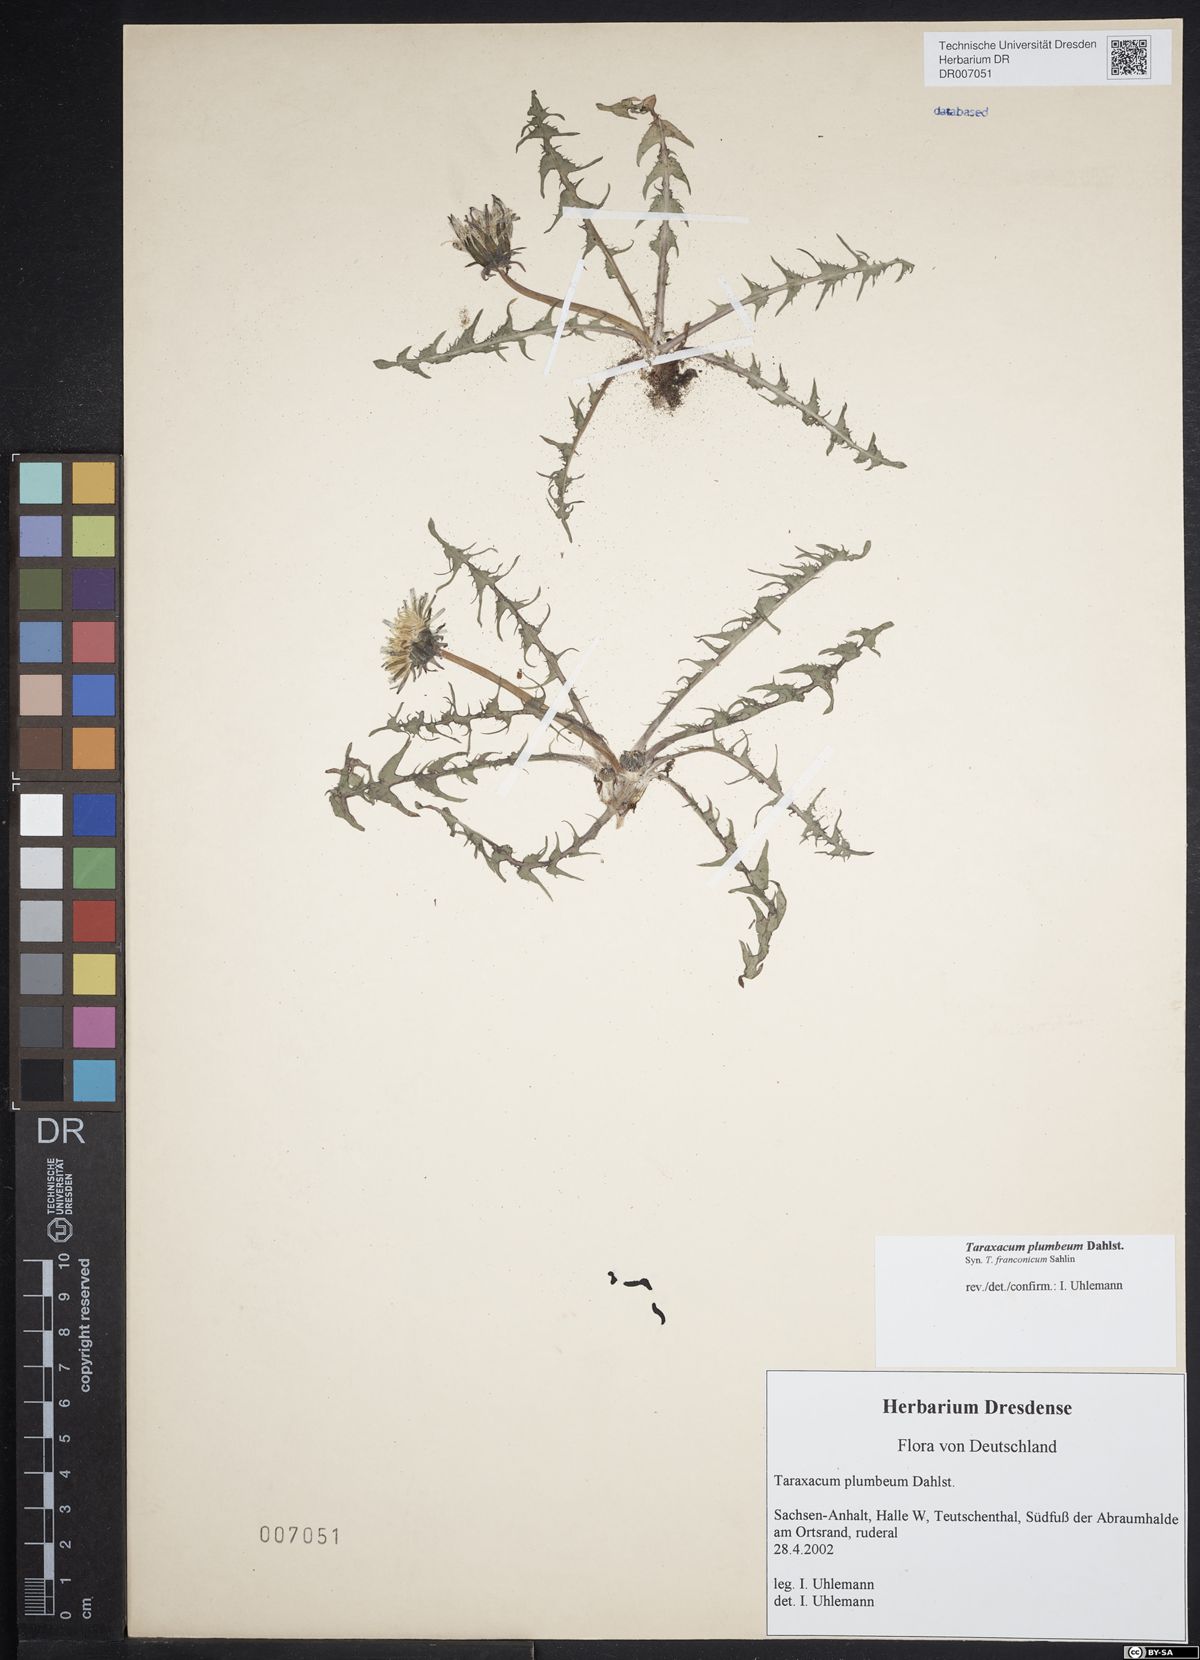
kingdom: Plantae
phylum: Tracheophyta
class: Magnoliopsida
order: Asterales
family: Asteraceae
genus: Taraxacum
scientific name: Taraxacum plumbeum
